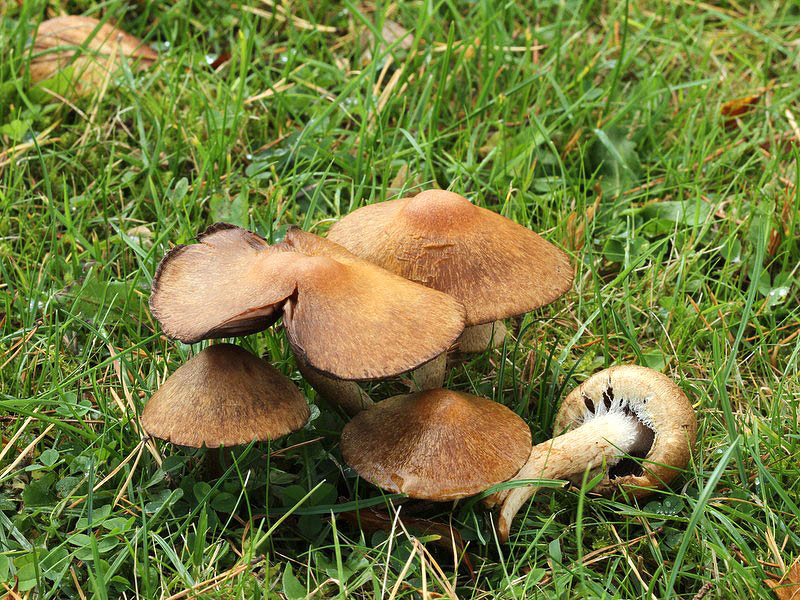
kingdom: Fungi
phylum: Basidiomycota
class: Agaricomycetes
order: Agaricales
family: Psathyrellaceae
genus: Lacrymaria
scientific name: Lacrymaria lacrymabunda
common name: grædende mørkhat
